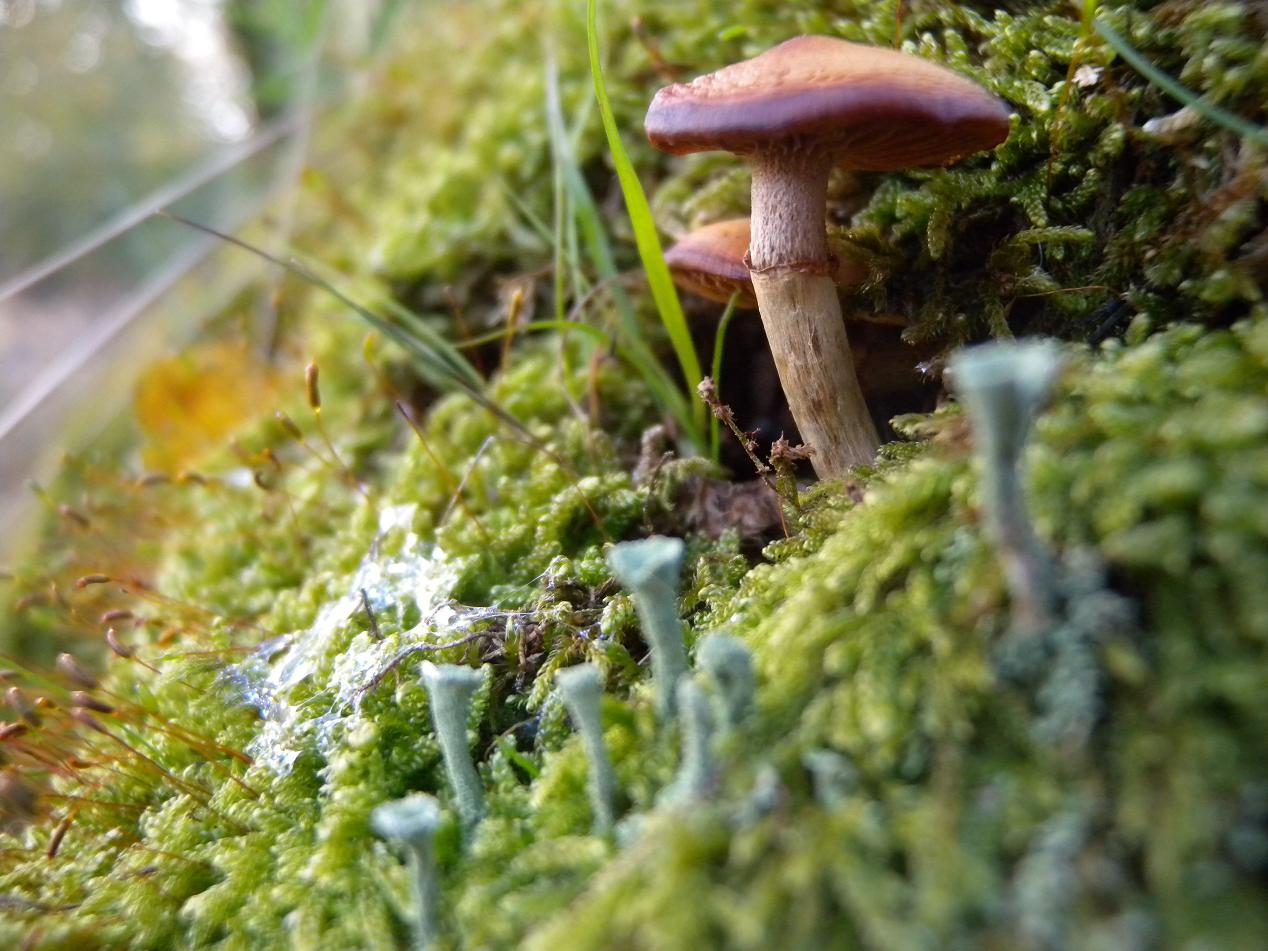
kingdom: Fungi
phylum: Basidiomycota
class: Agaricomycetes
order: Agaricales
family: Hymenogastraceae
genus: Galerina
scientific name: Galerina marginata
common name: randbæltet hjelmhat
